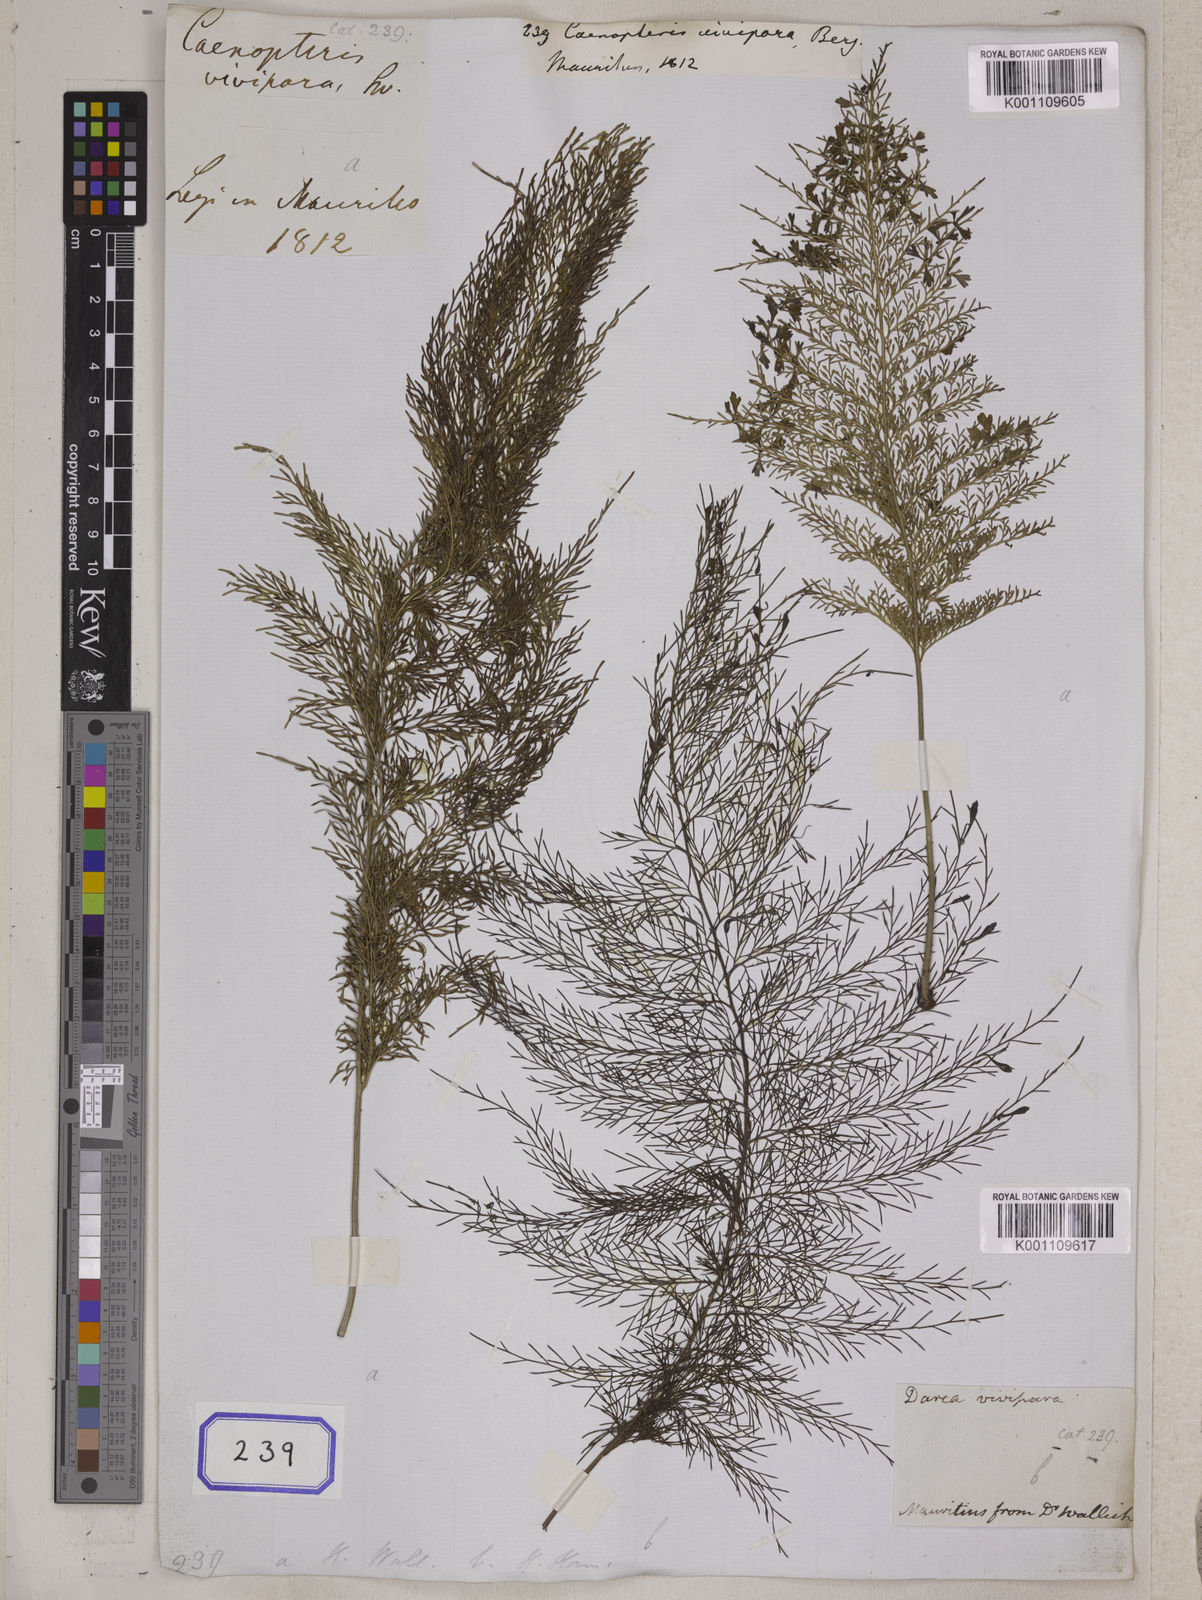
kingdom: Plantae
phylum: Tracheophyta
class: Polypodiopsida
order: Polypodiales
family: Aspleniaceae
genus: Asplenium
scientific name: Asplenium daucifolium
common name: Mauritius spleenwort
